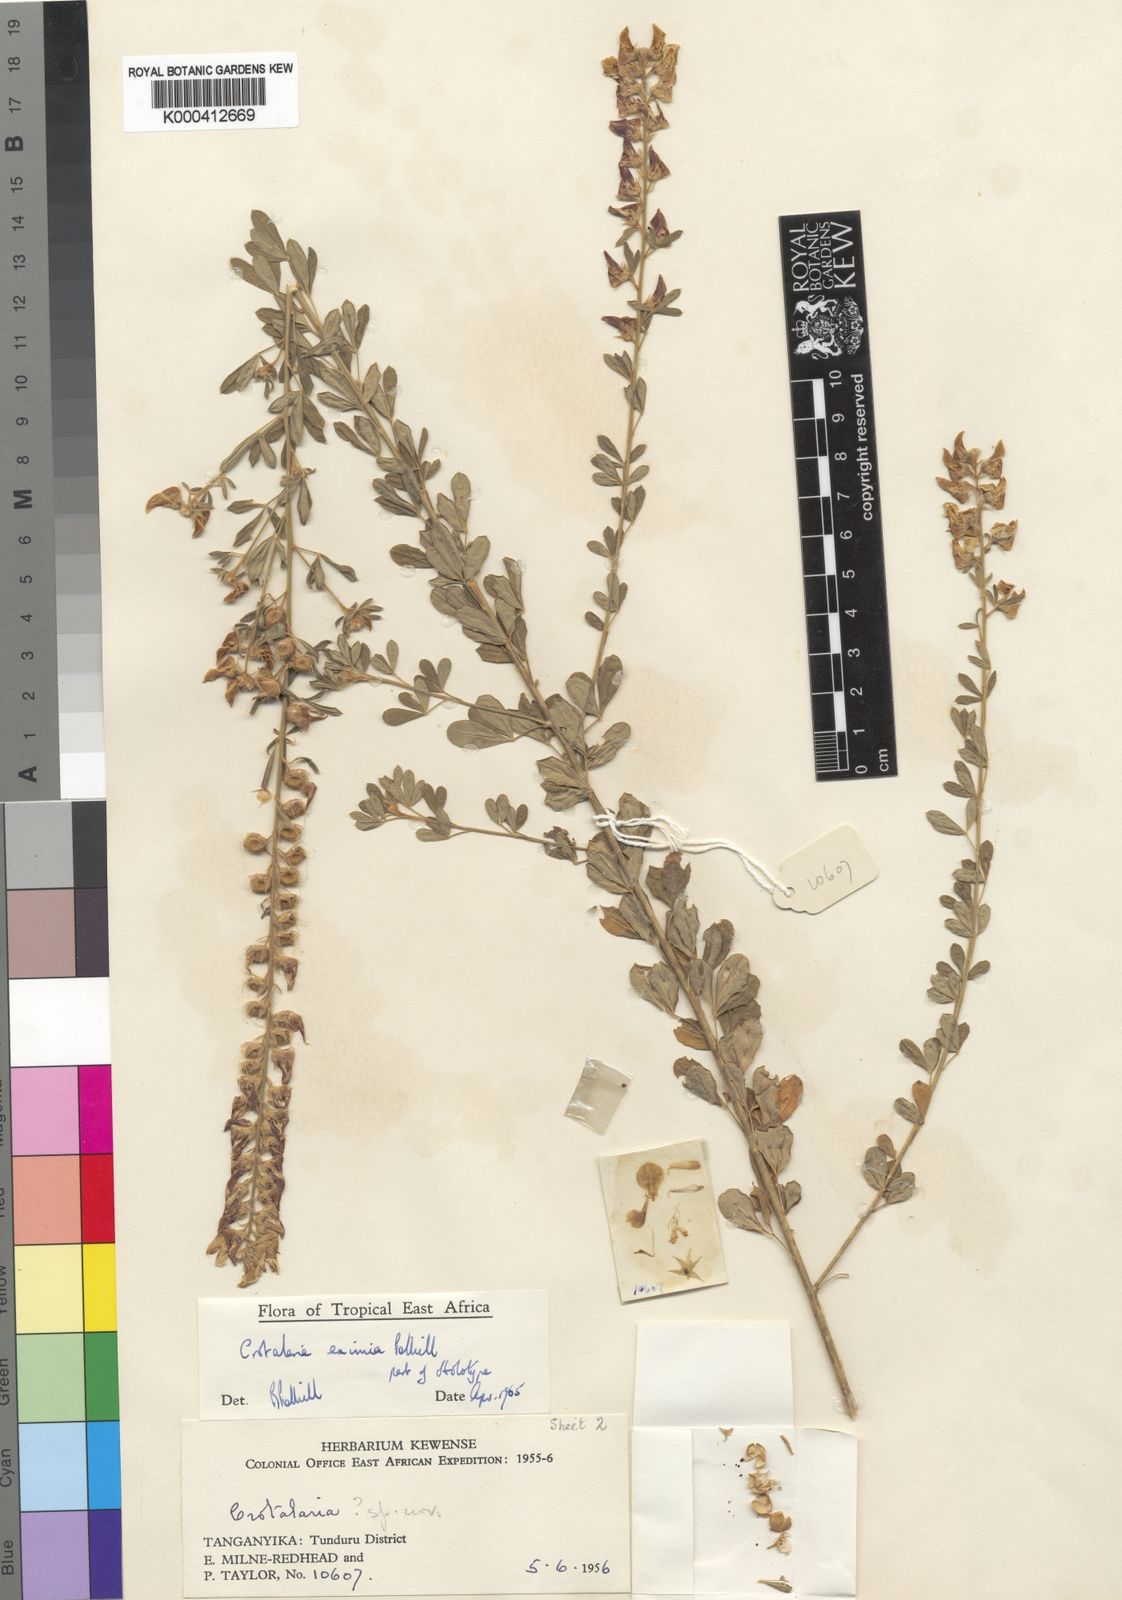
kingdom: Plantae
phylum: Tracheophyta
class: Magnoliopsida
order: Fabales
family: Fabaceae
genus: Crotalaria
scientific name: Crotalaria eximia
